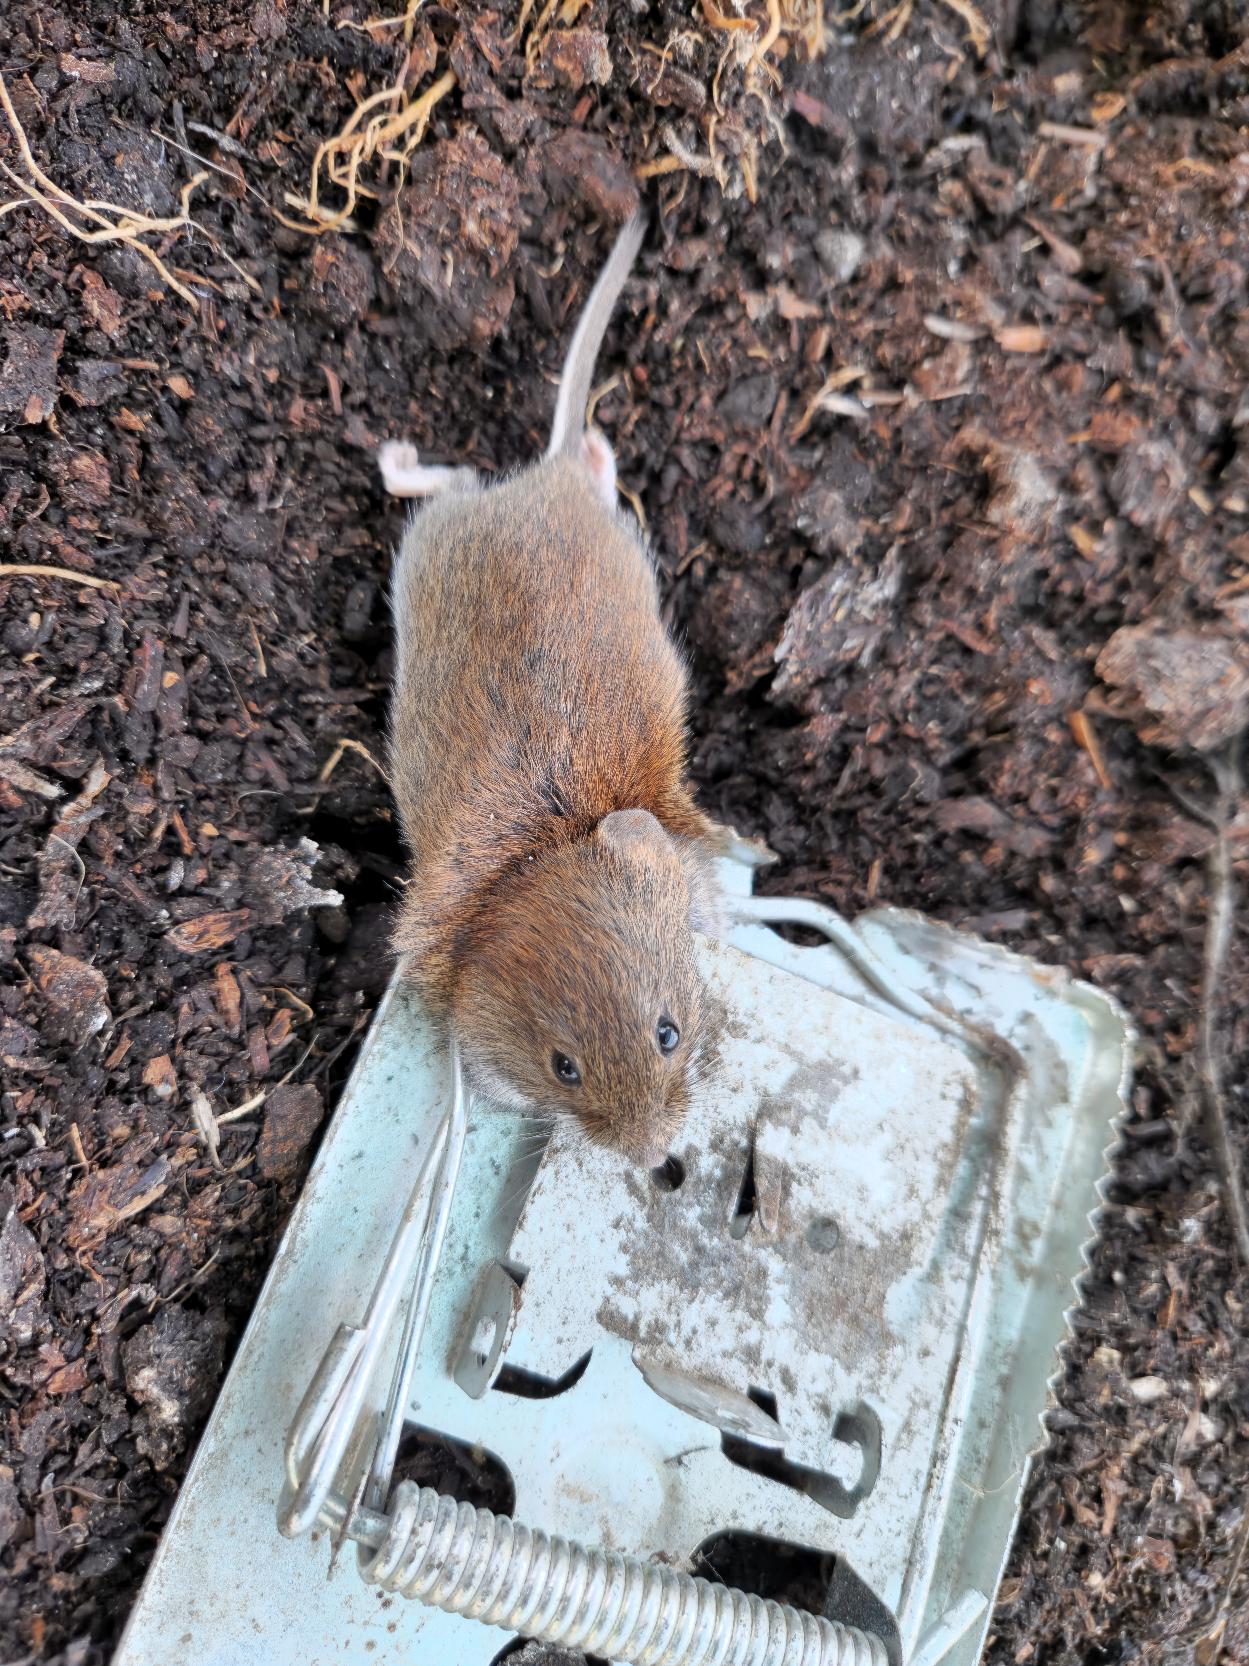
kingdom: Animalia
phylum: Chordata
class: Mammalia
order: Rodentia
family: Cricetidae
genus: Myodes
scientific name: Myodes glareolus
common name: Rødmus
